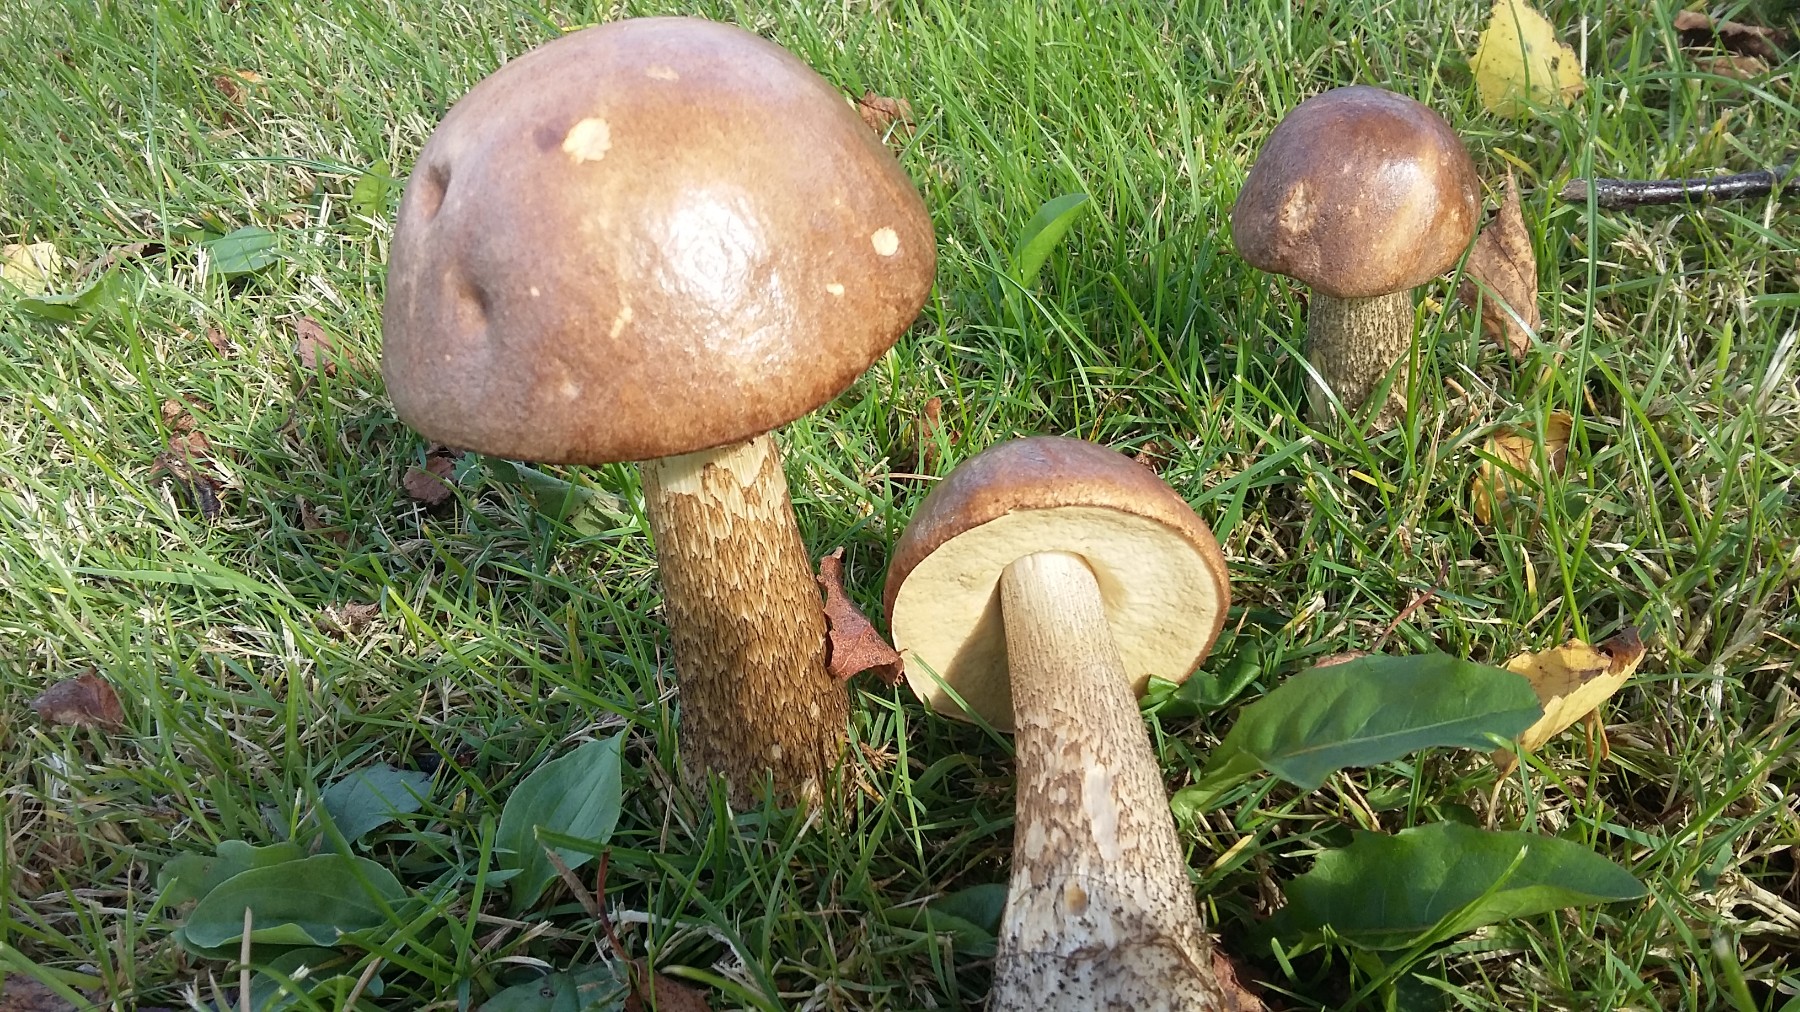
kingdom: Fungi
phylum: Basidiomycota
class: Agaricomycetes
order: Boletales
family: Boletaceae
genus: Leccinum
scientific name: Leccinum scabrum
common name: brun skælrørhat
